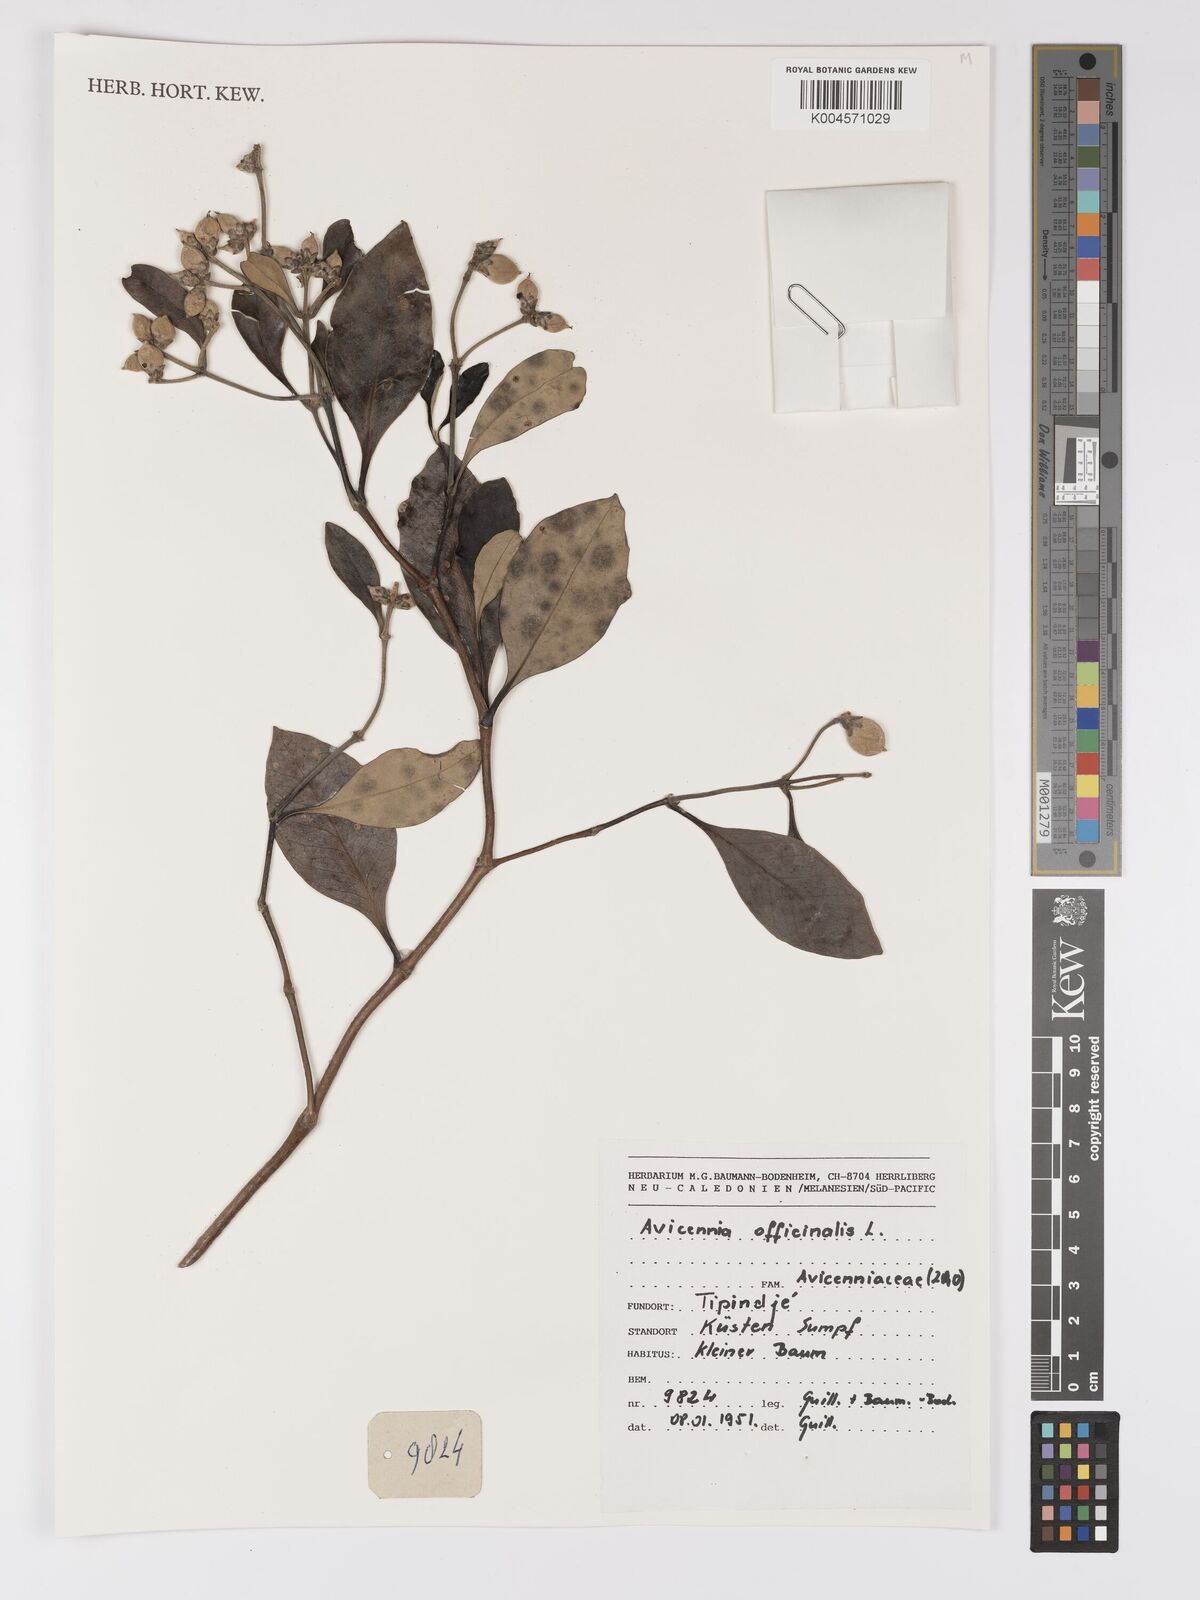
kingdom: Plantae
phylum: Tracheophyta
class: Magnoliopsida
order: Lamiales
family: Acanthaceae
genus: Avicennia
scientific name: Avicennia officinalis
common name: Baen
